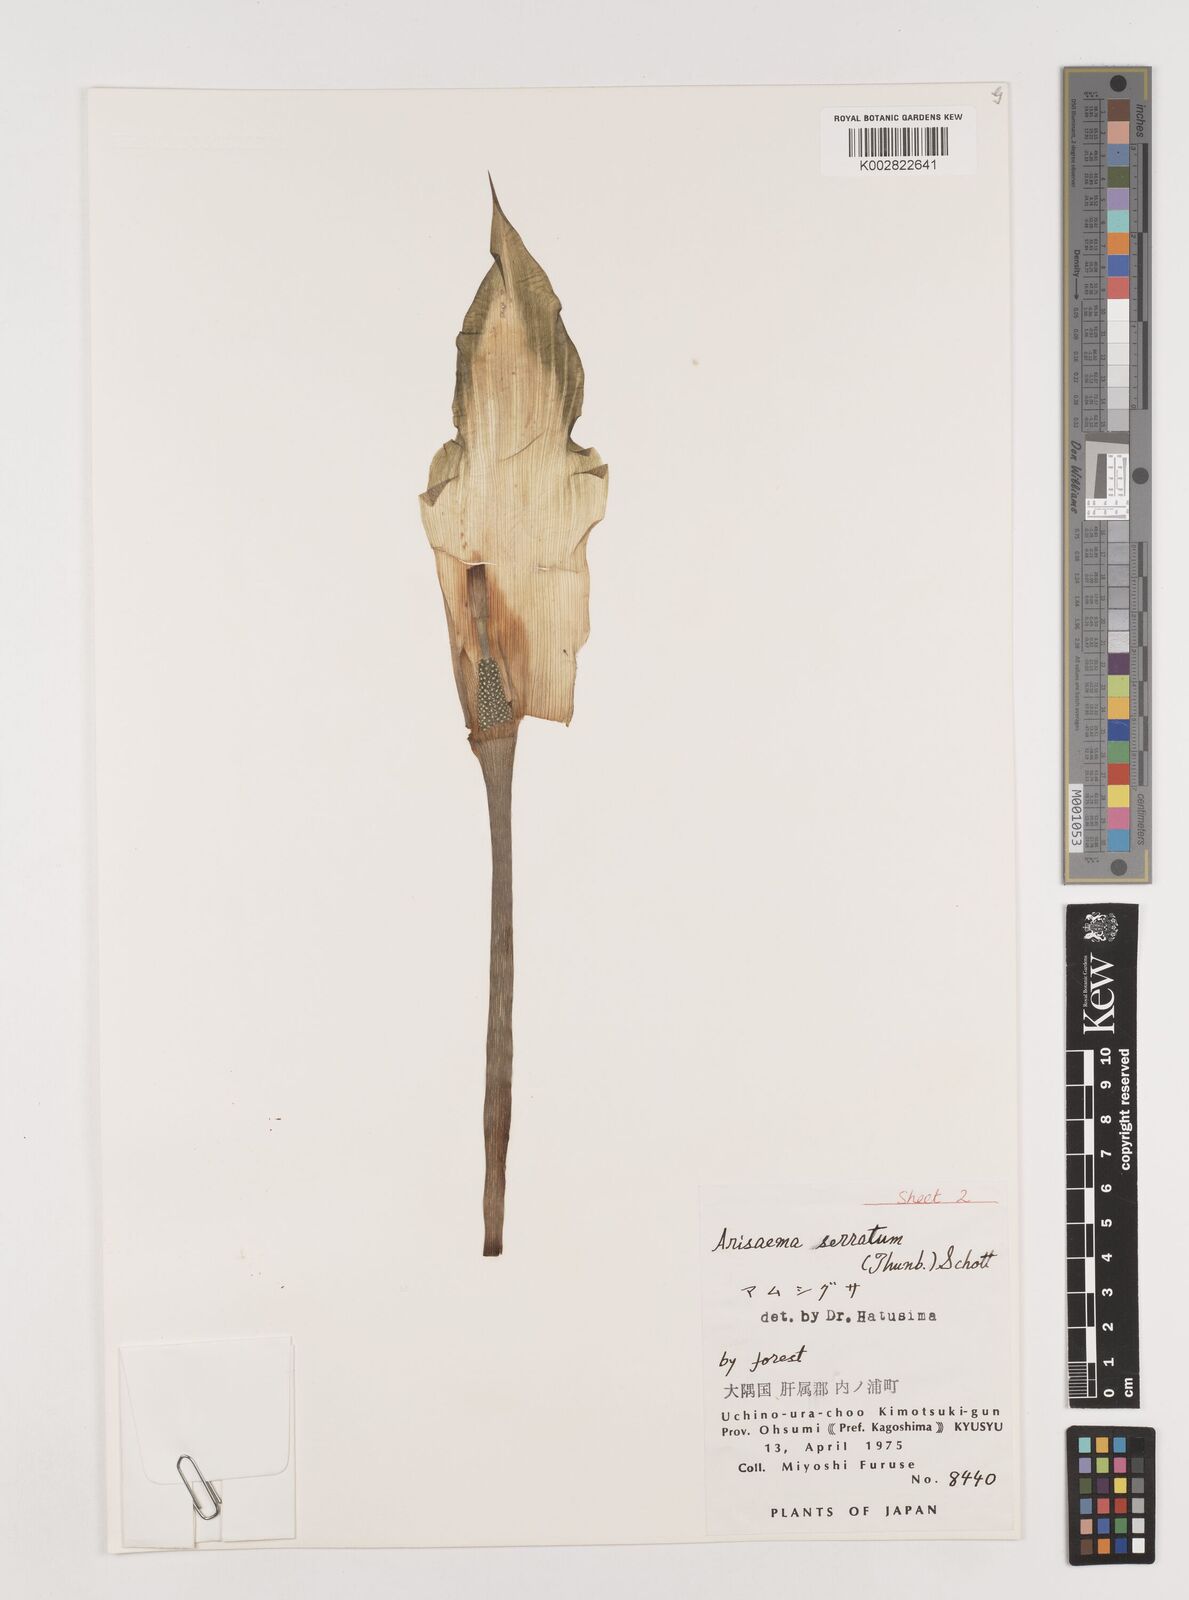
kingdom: Plantae
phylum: Tracheophyta
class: Liliopsida
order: Alismatales
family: Araceae
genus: Arisaema
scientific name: Arisaema serratum
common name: Japanese arisaema
